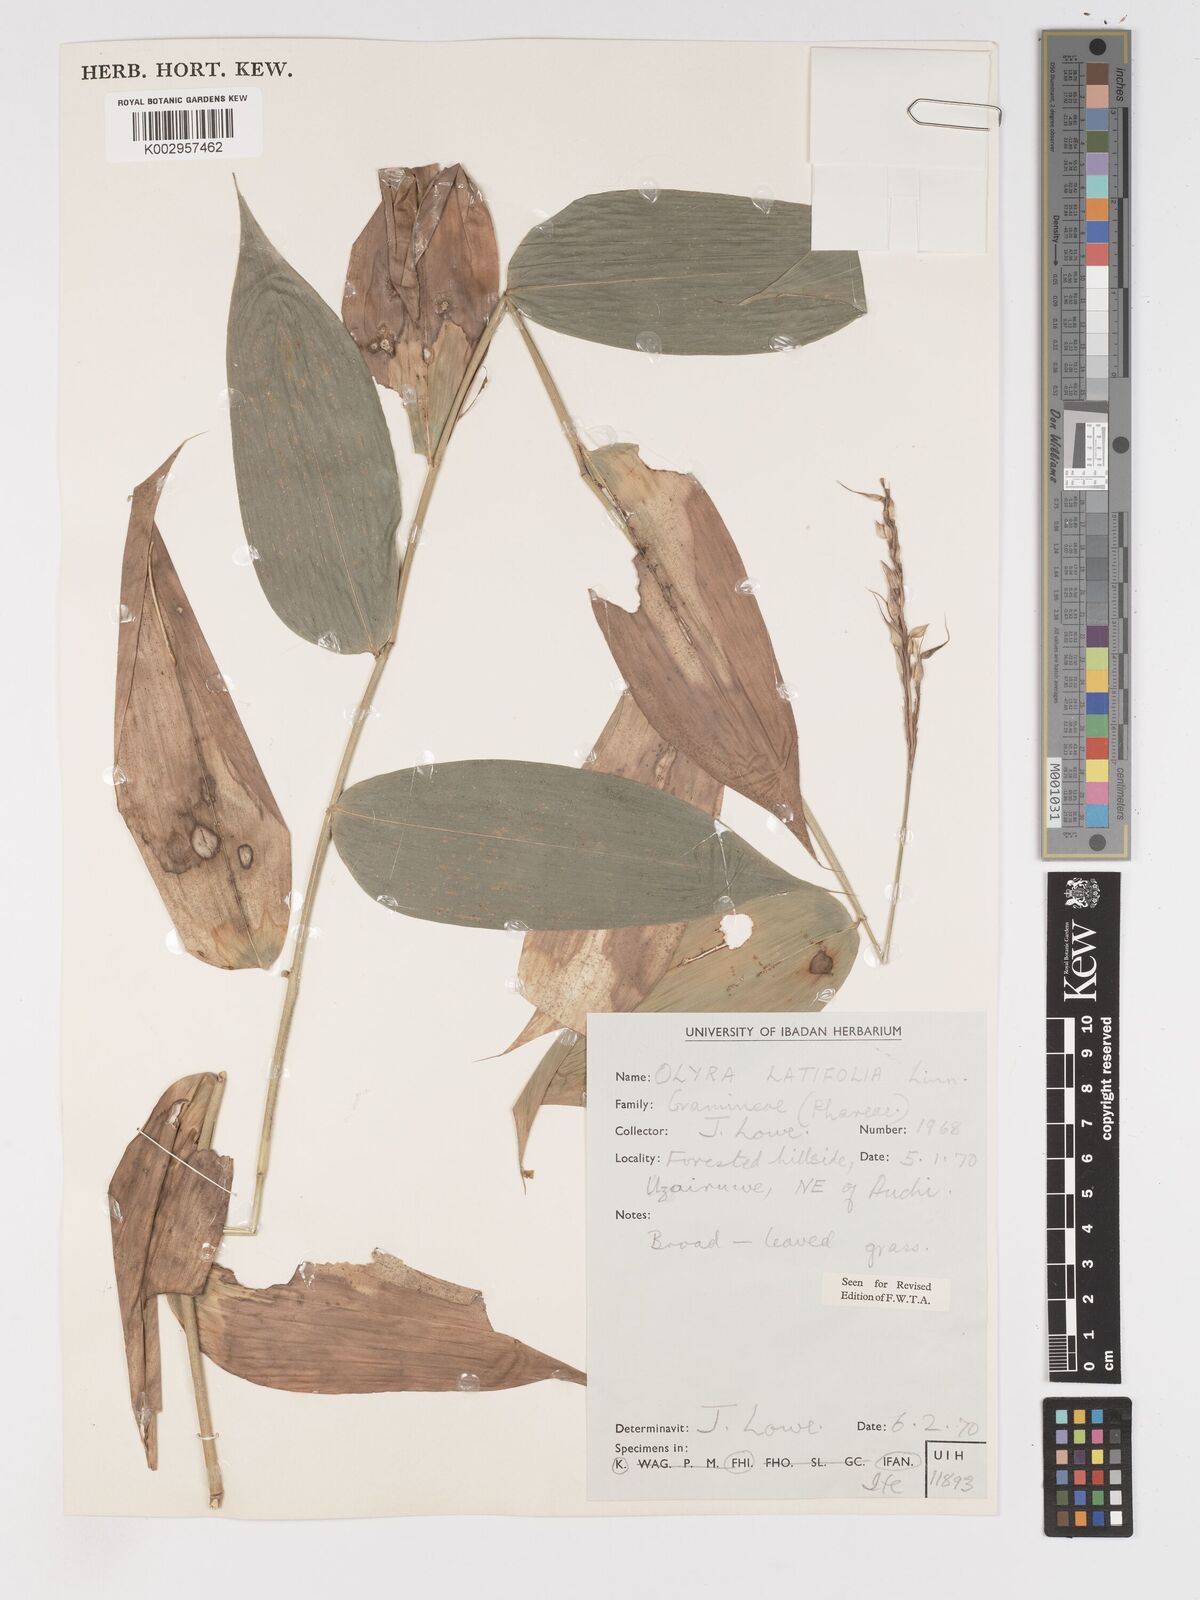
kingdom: Plantae
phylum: Tracheophyta
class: Liliopsida
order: Poales
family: Poaceae
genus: Olyra
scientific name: Olyra latifolia
